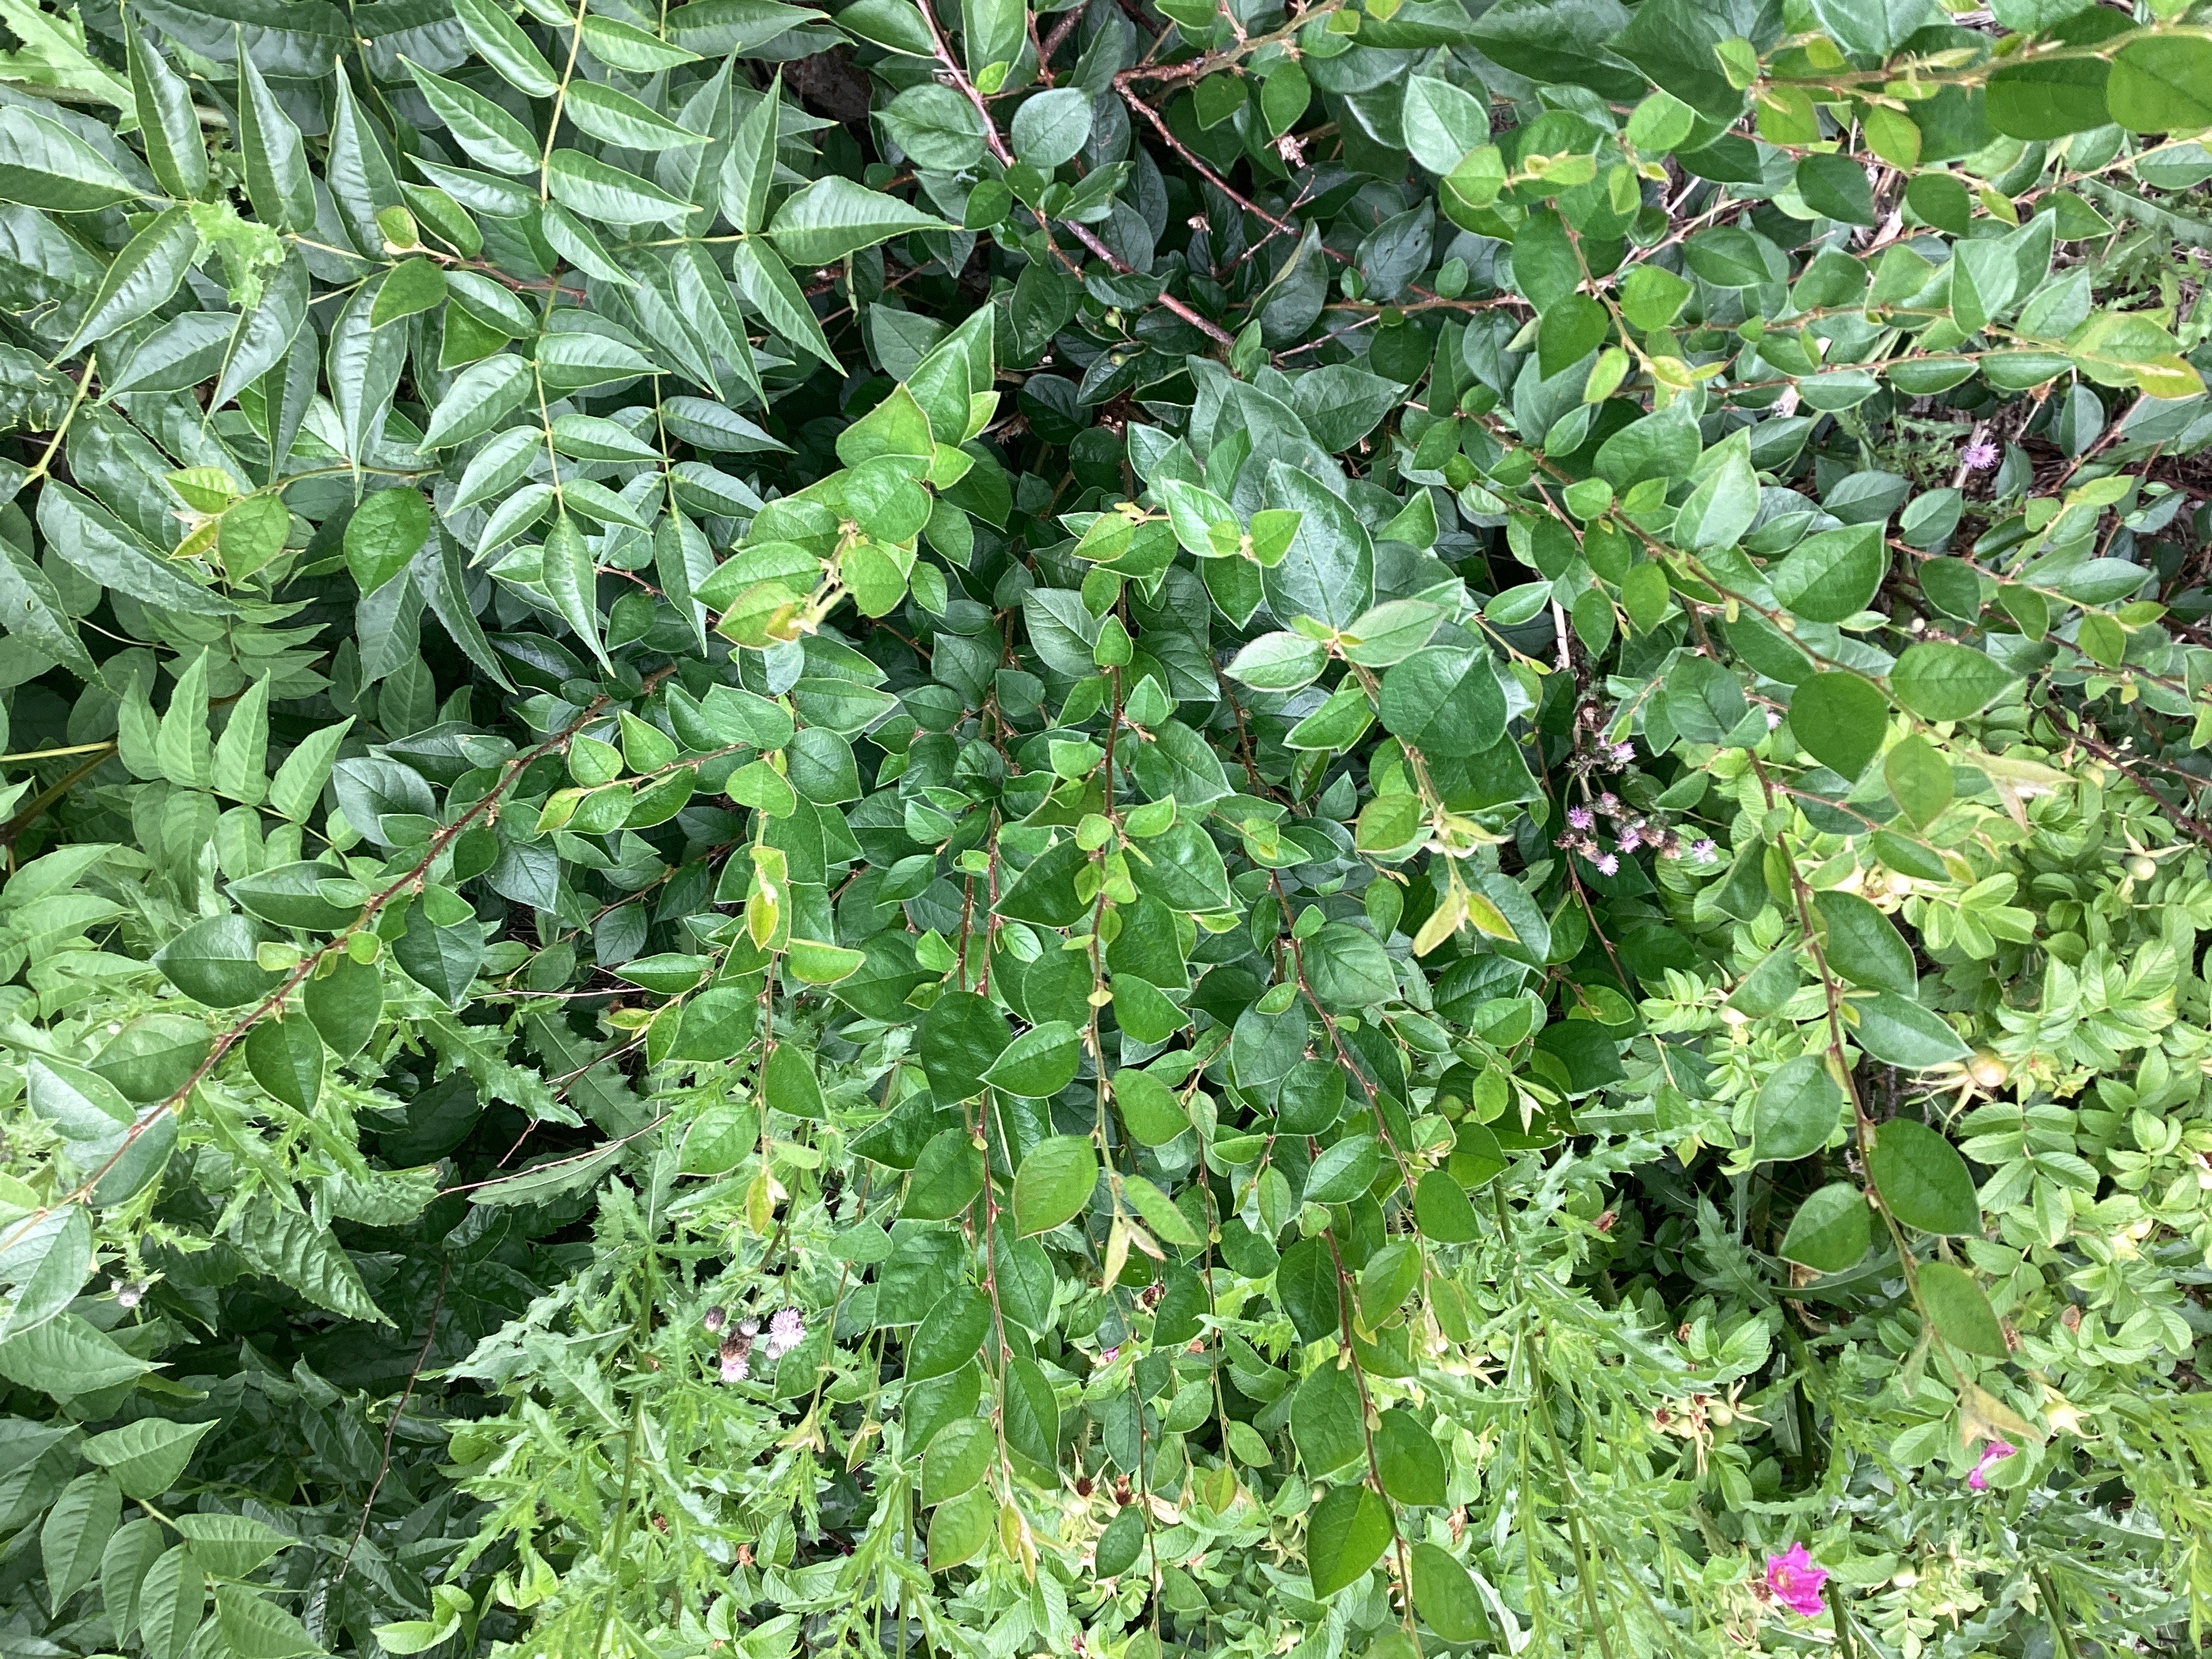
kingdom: Plantae
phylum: Tracheophyta
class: Magnoliopsida
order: Rosales
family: Rosaceae
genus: Cotoneaster
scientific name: Cotoneaster acutifolius
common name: blankmispel
